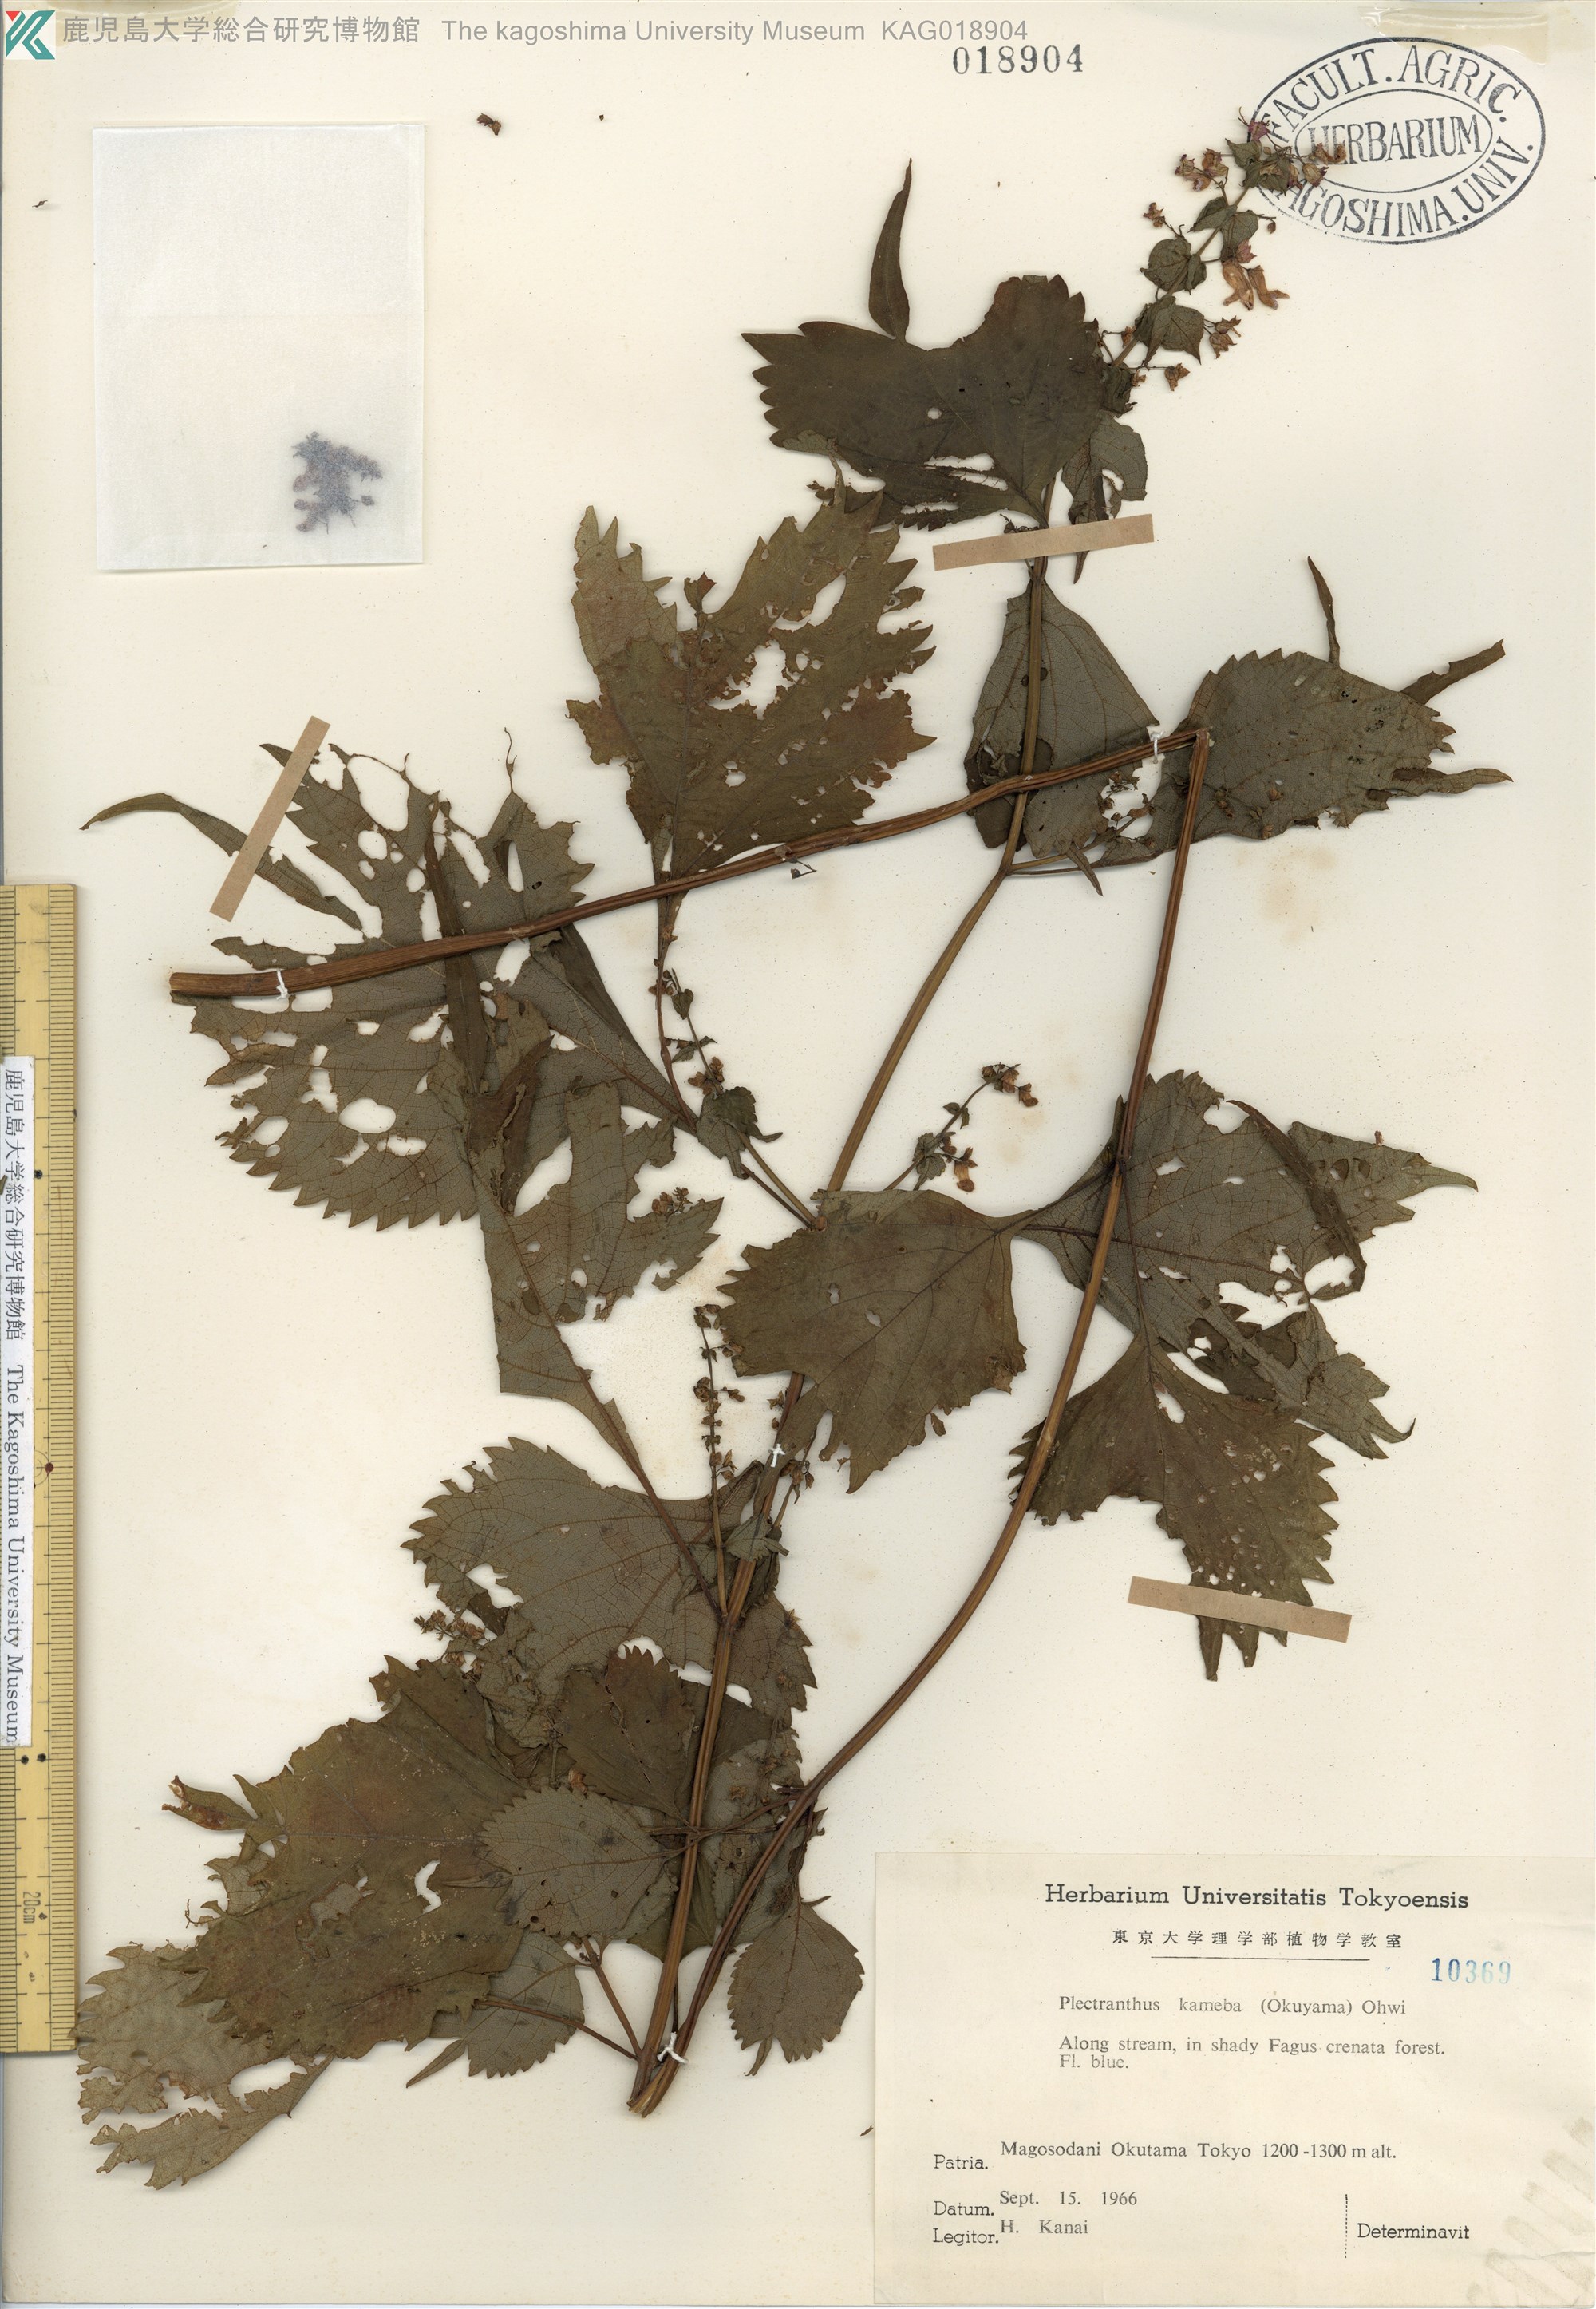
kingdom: Plantae
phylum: Tracheophyta
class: Magnoliopsida
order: Lamiales
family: Lamiaceae
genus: Isodon
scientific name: Isodon umbrosus
